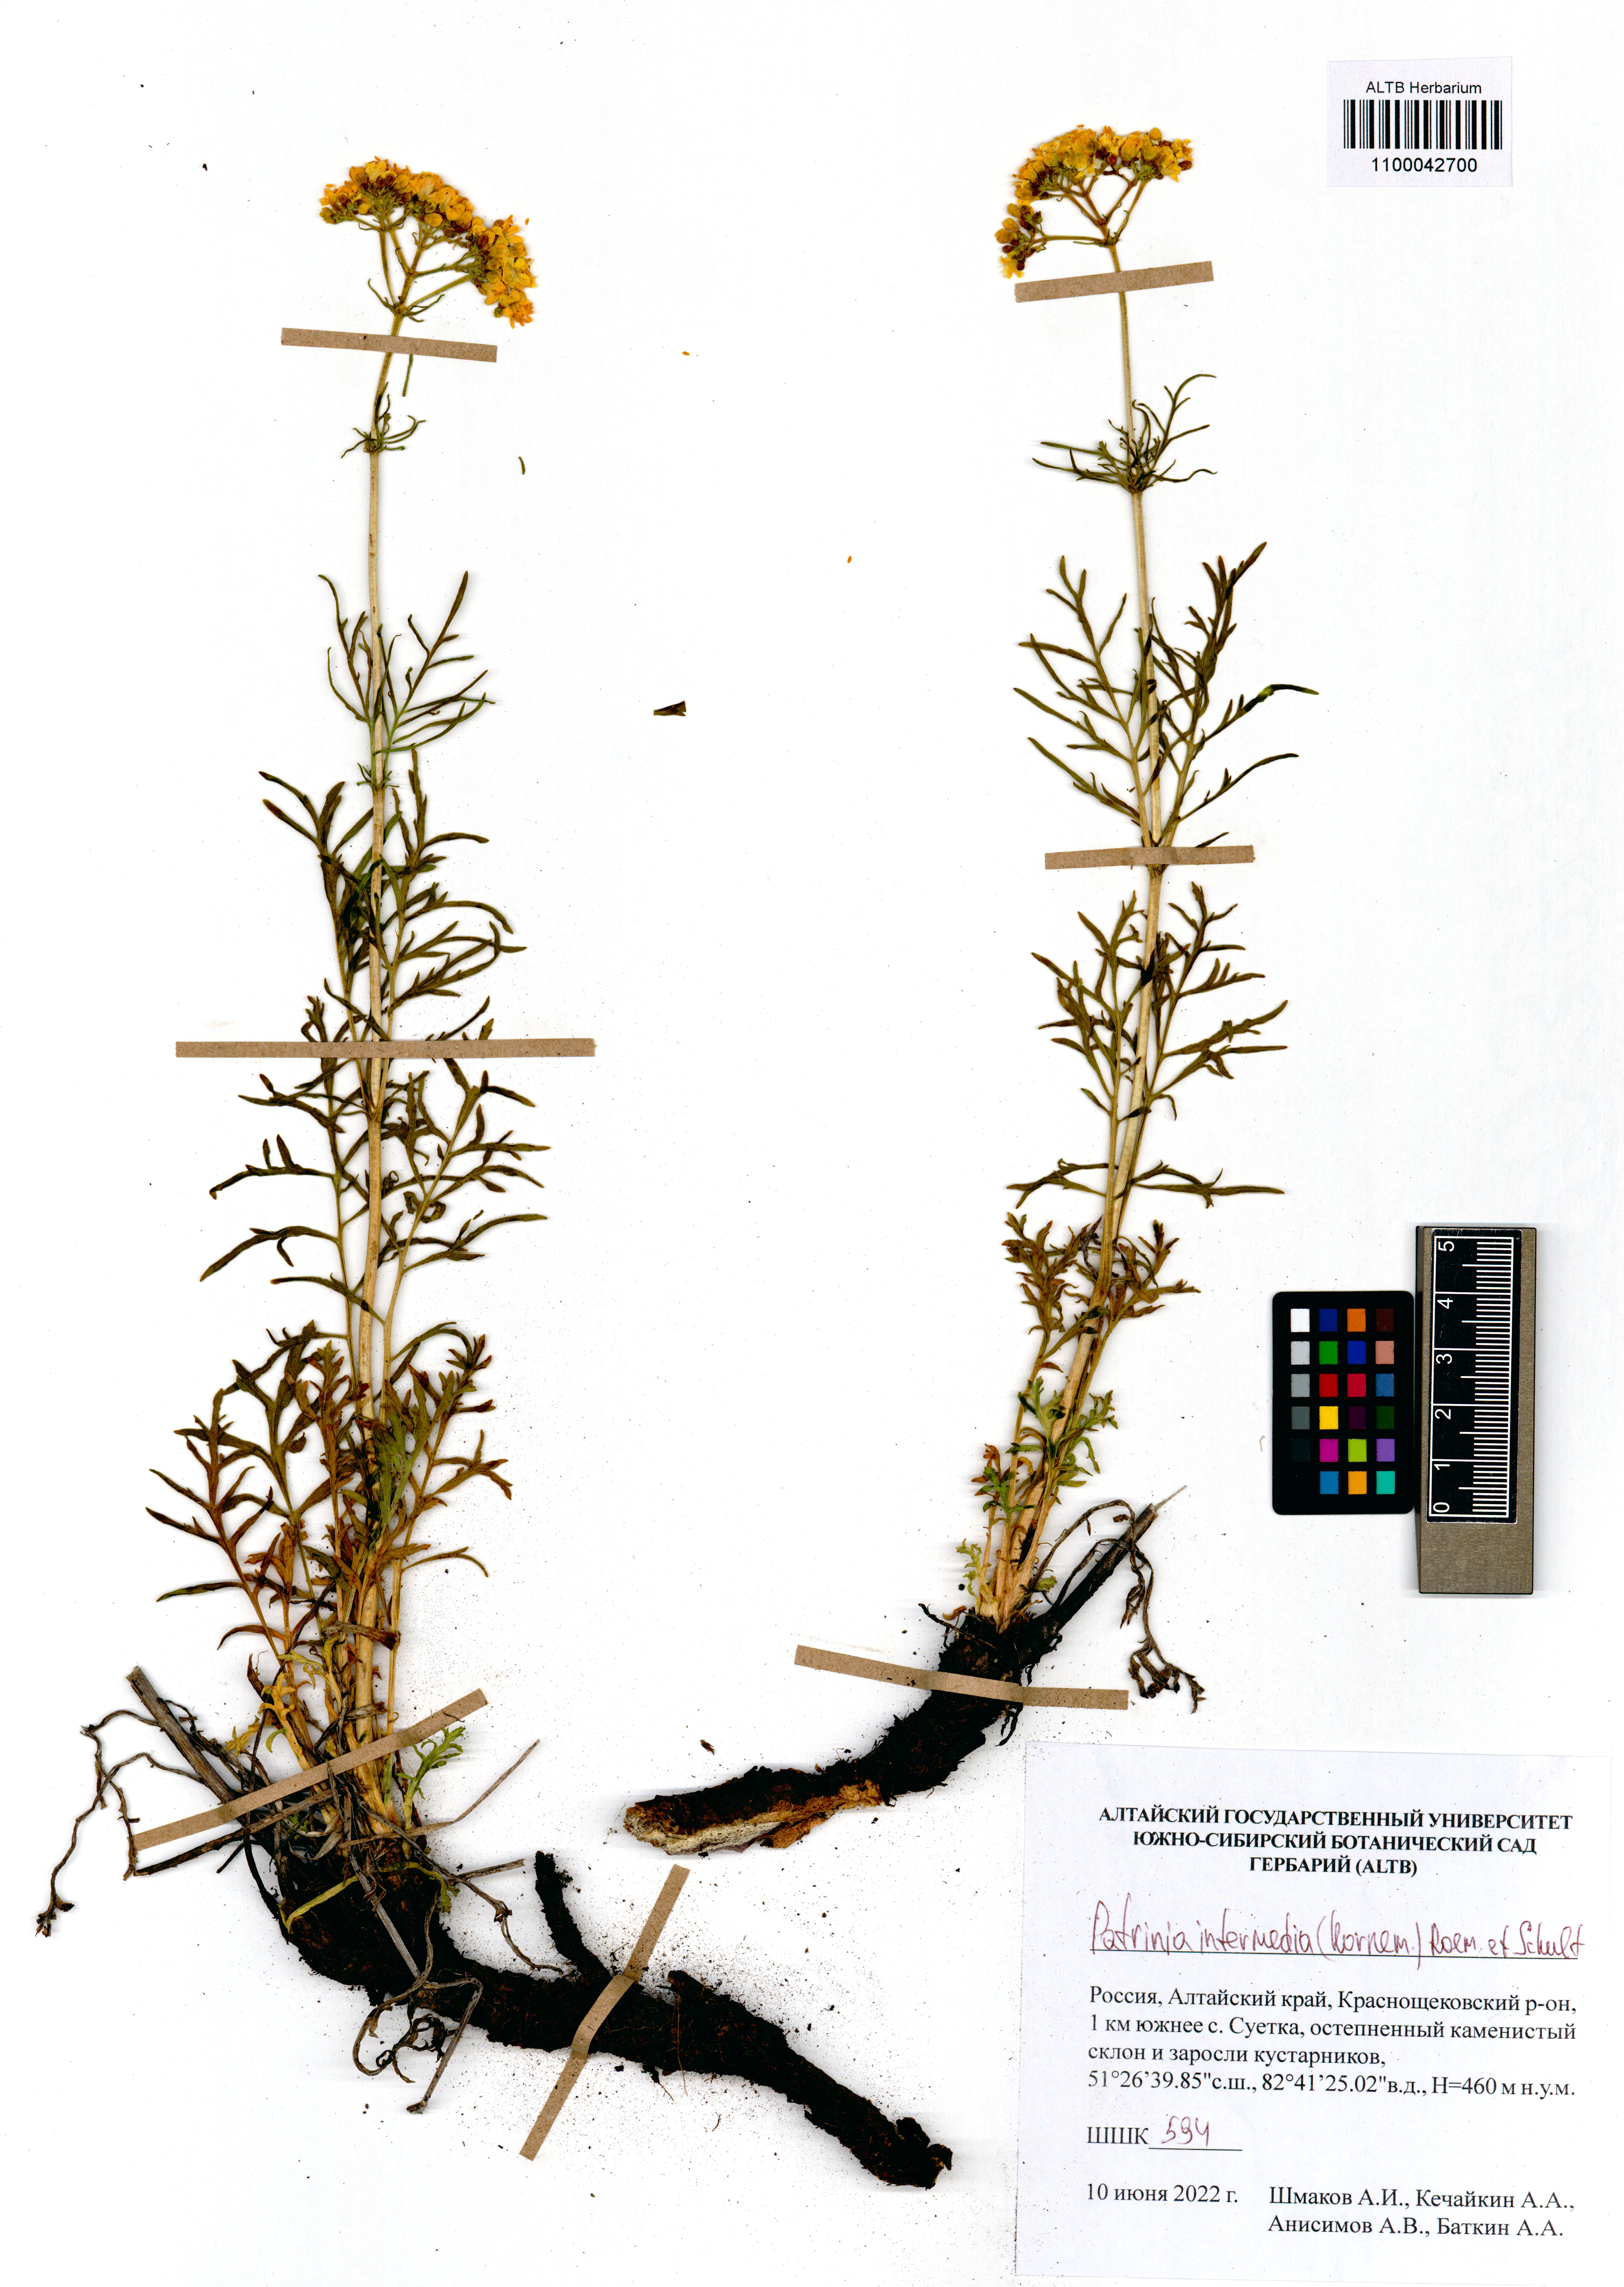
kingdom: Plantae
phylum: Tracheophyta
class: Magnoliopsida
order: Dipsacales
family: Caprifoliaceae
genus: Patrinia
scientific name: Patrinia intermedia
